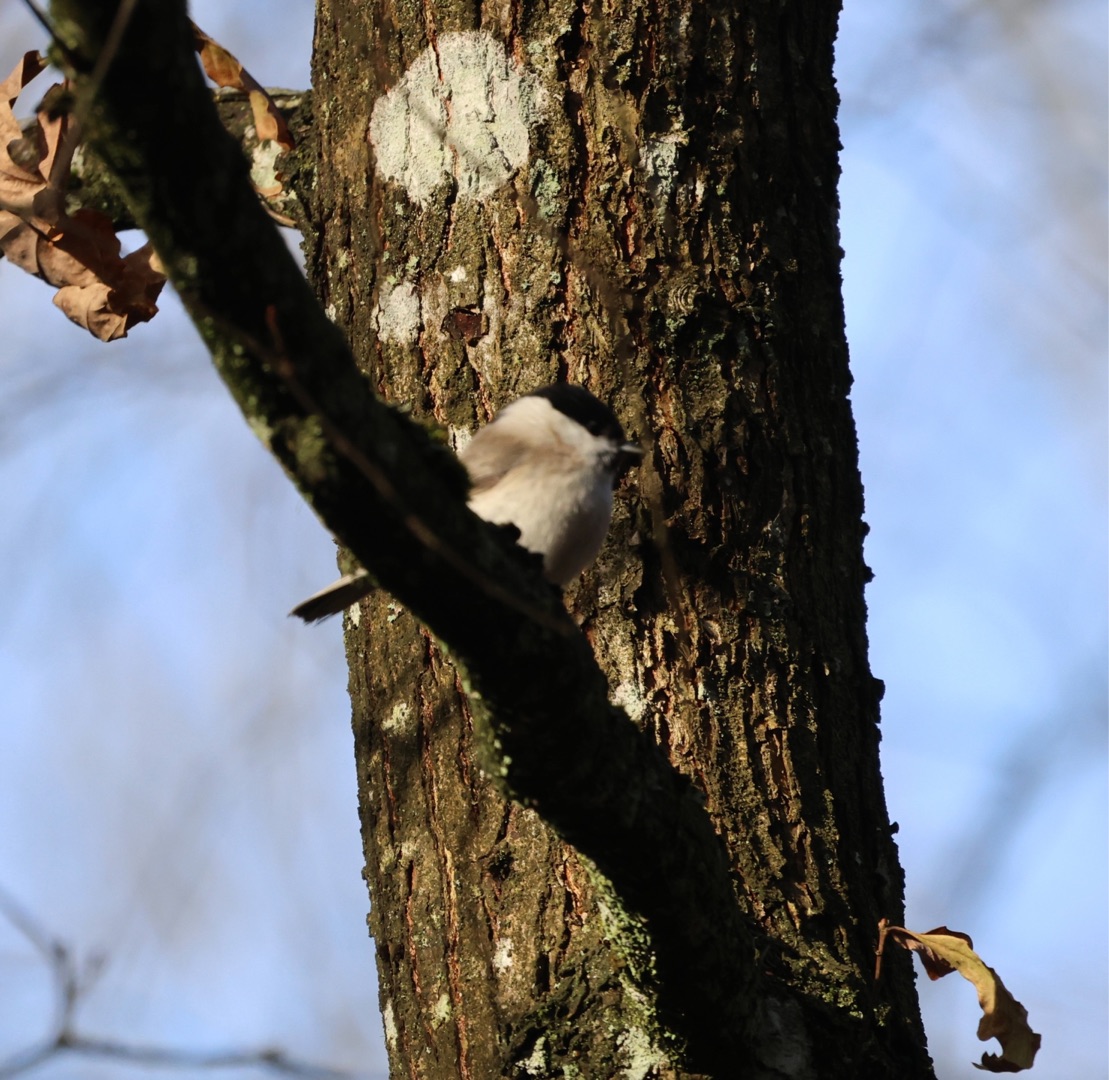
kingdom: Animalia
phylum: Chordata
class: Aves
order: Passeriformes
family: Paridae
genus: Poecile
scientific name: Poecile palustris
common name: Sumpmejse
